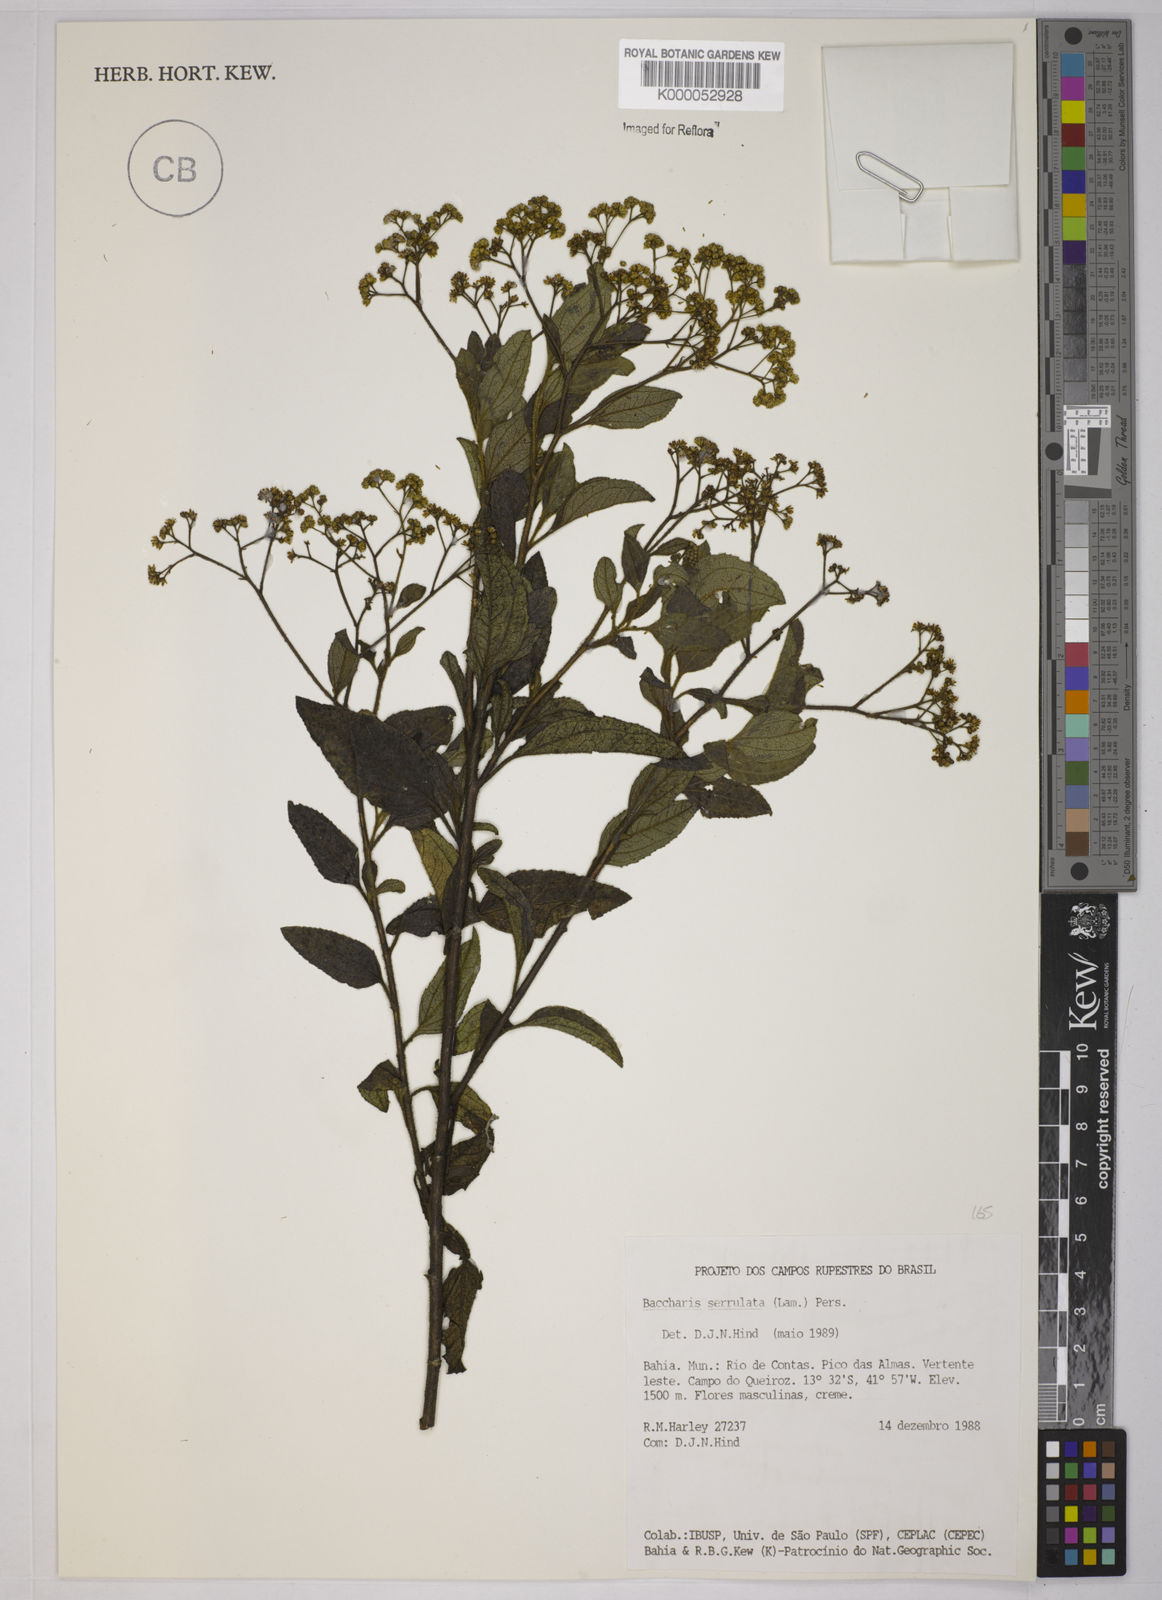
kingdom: Plantae
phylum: Tracheophyta
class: Magnoliopsida
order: Asterales
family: Asteraceae
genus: Baccharis
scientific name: Baccharis serrulata
